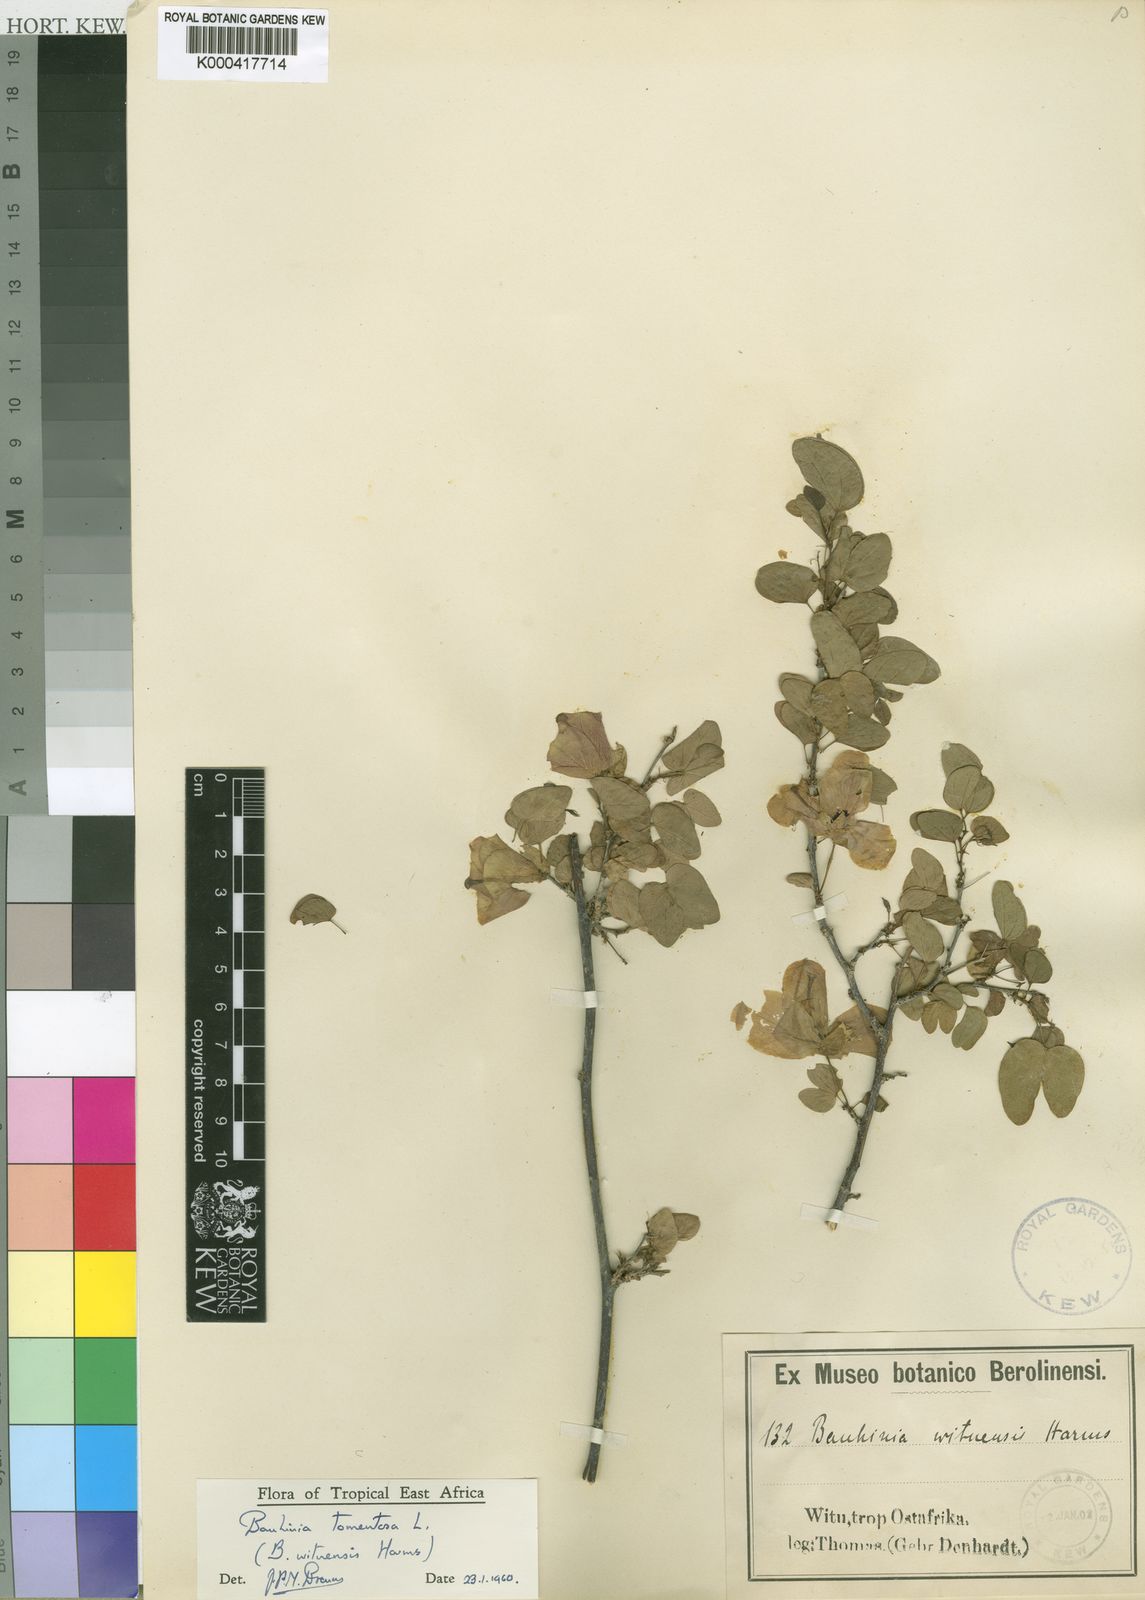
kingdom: Plantae
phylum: Tracheophyta
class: Magnoliopsida
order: Fabales
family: Fabaceae
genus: Bauhinia
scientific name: Bauhinia tomentosa
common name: Bell bauhinia
